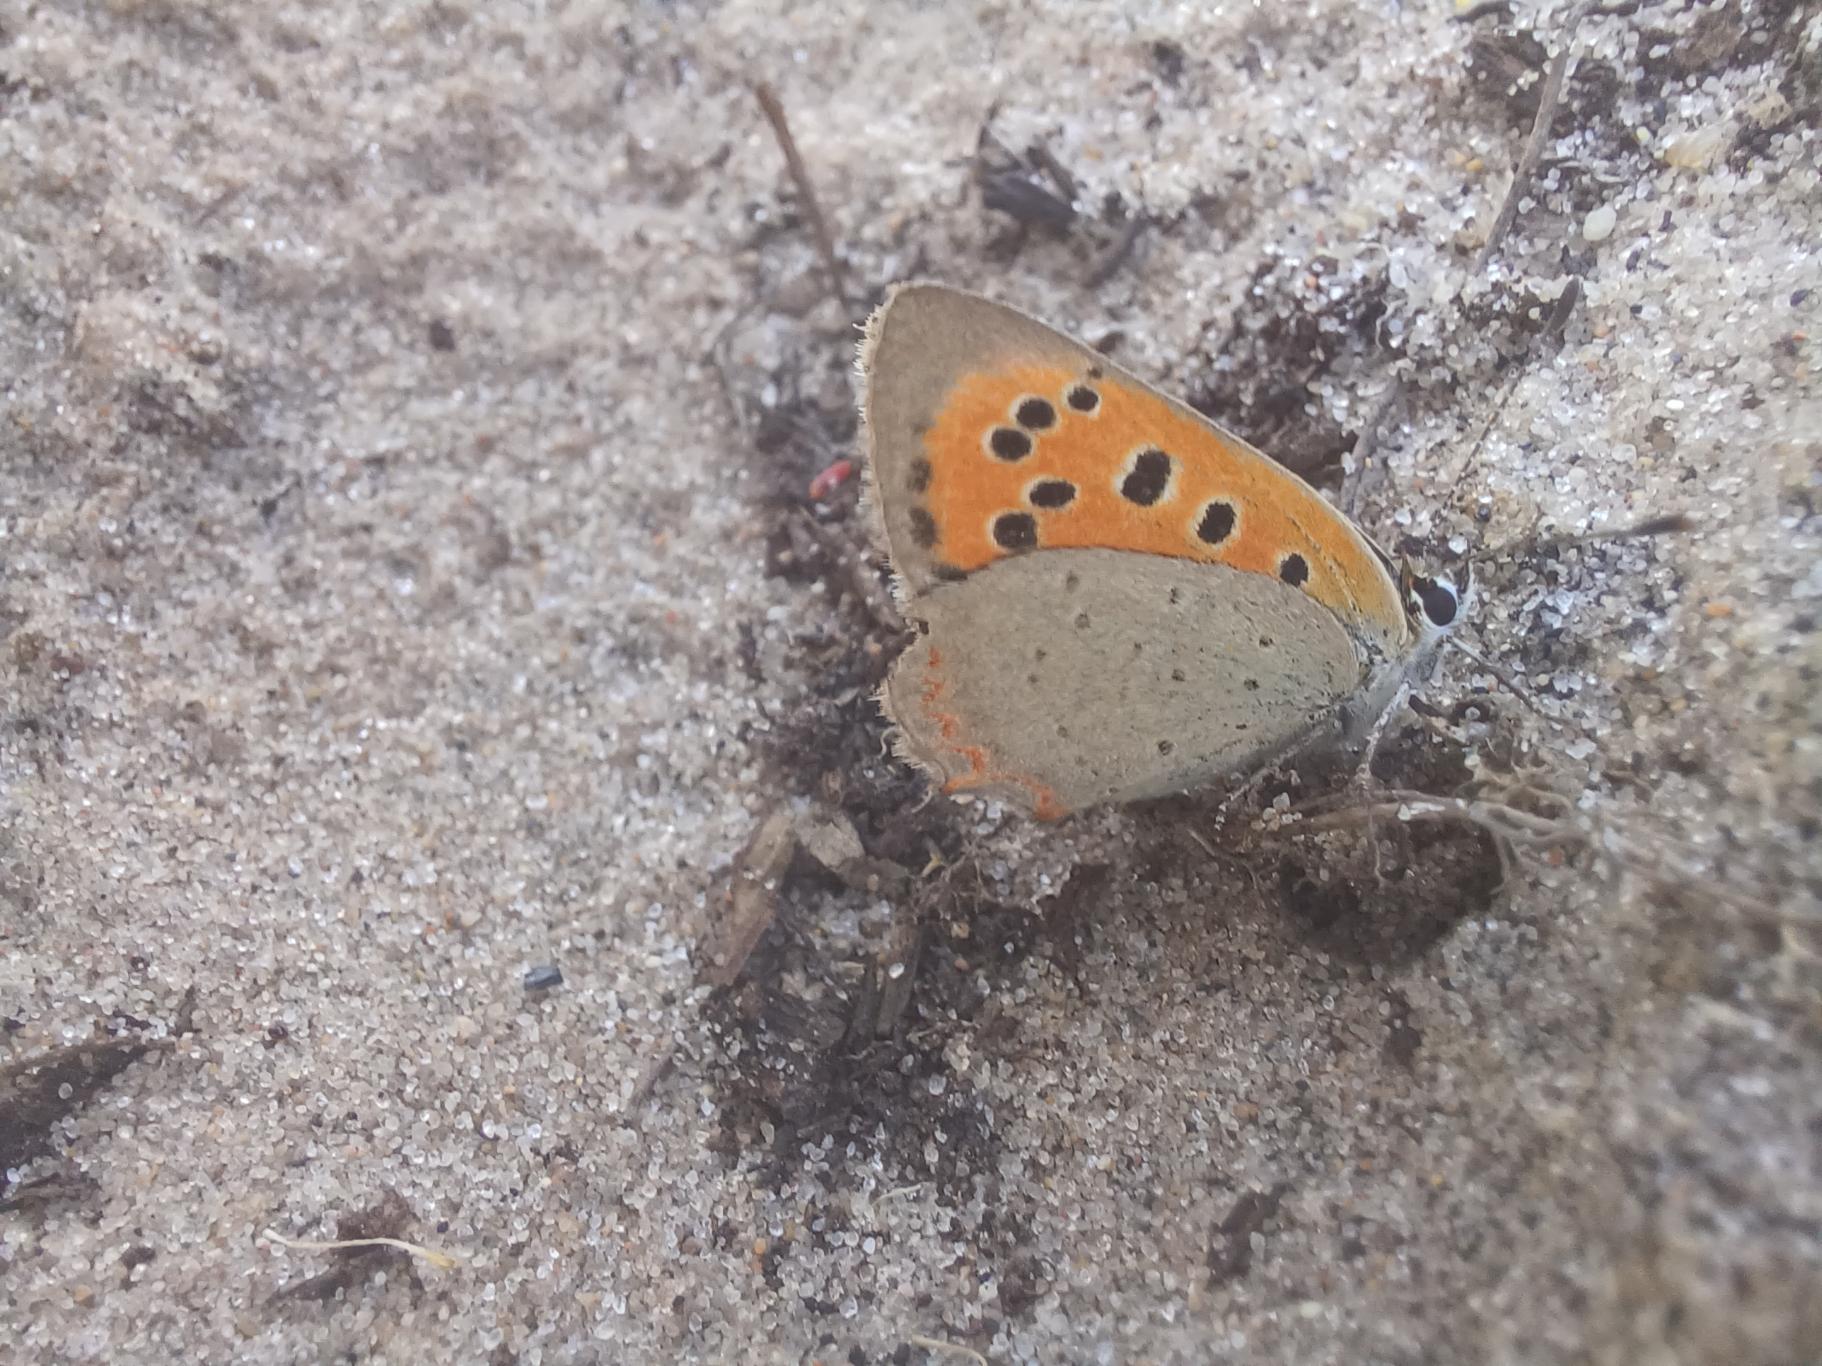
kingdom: Animalia
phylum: Arthropoda
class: Insecta
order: Lepidoptera
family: Lycaenidae
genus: Lycaena
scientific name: Lycaena phlaeas
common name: Lille ildfugl
